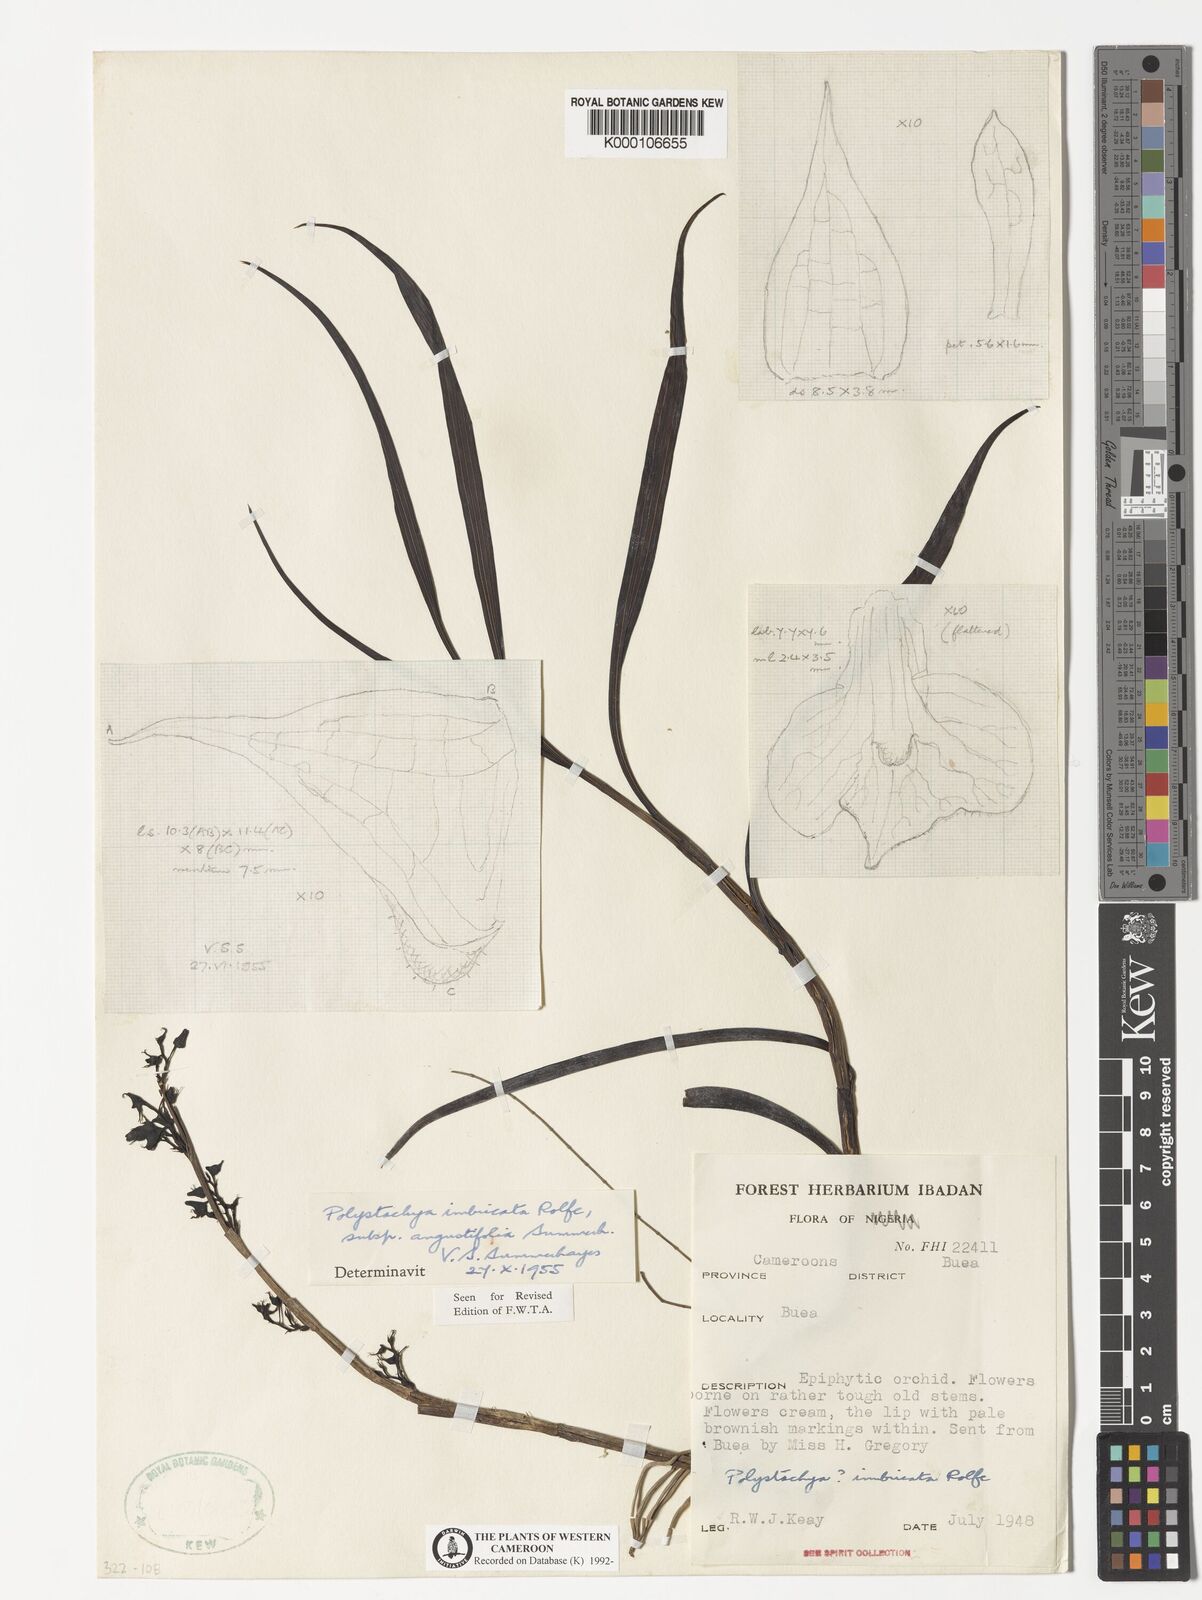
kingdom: Plantae
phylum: Tracheophyta
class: Liliopsida
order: Asparagales
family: Orchidaceae
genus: Polystachya
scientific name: Polystachya albescens
